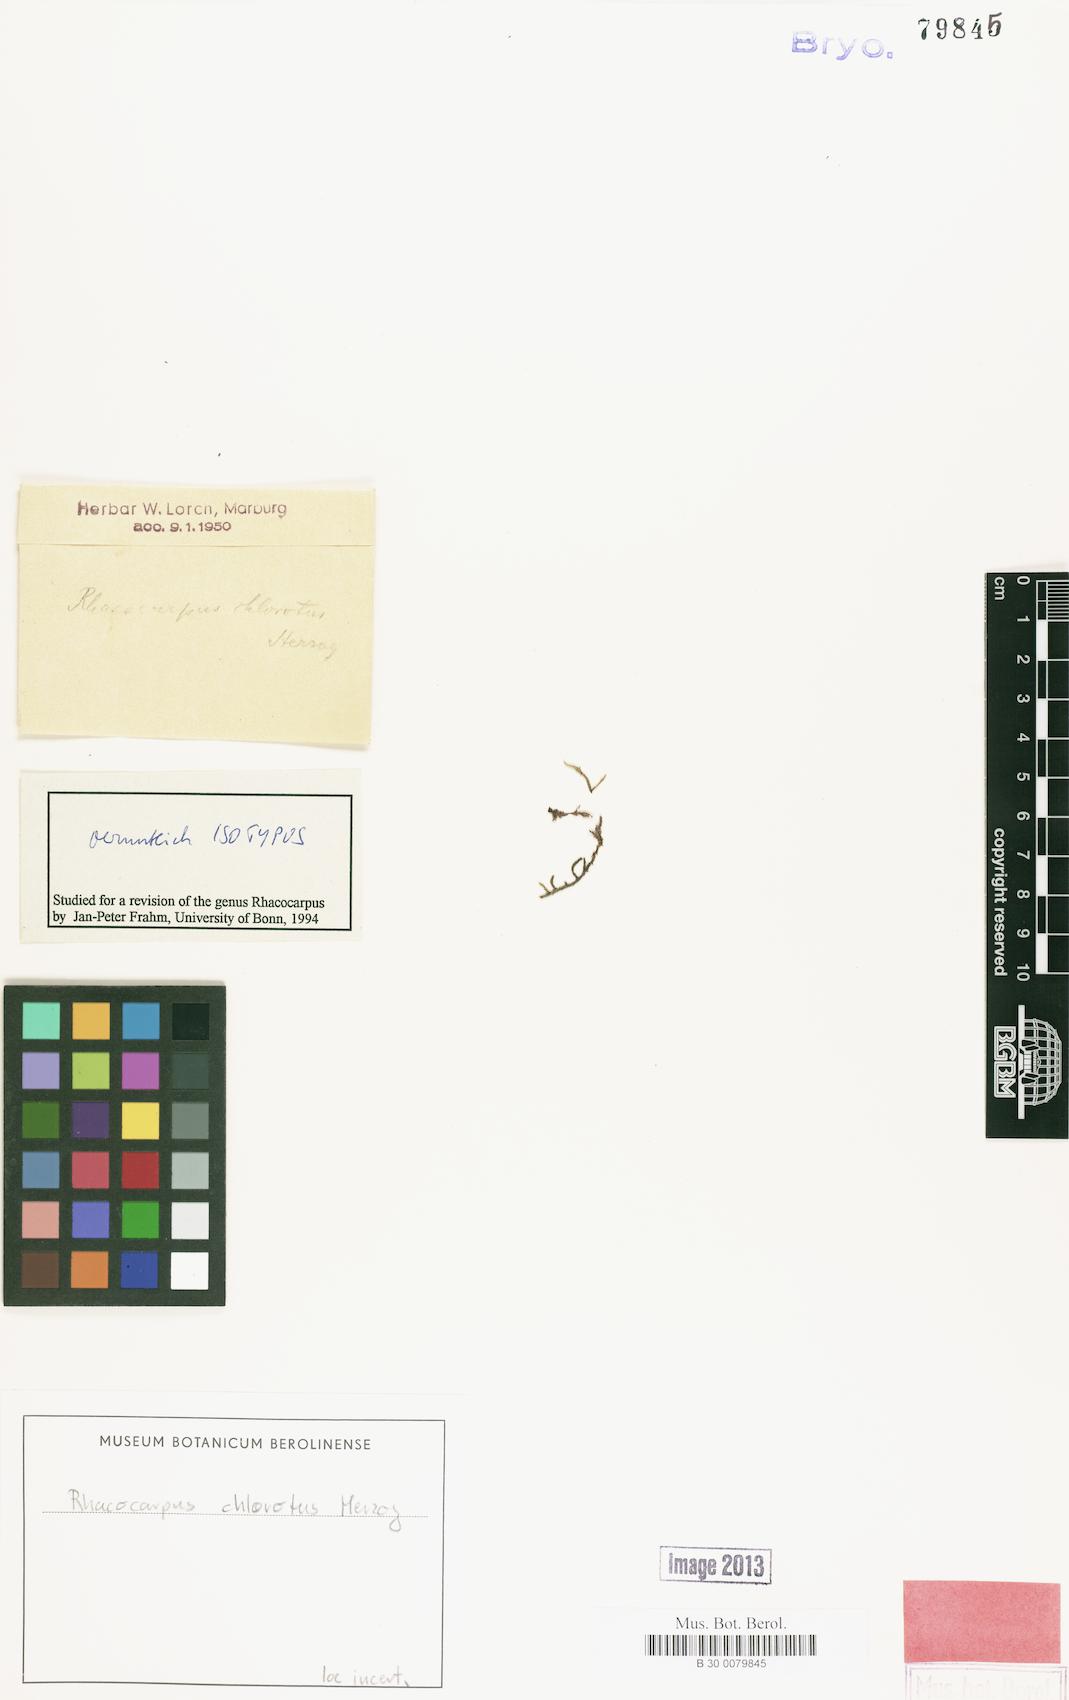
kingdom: Plantae
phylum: Bryophyta
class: Bryopsida
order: Hedwigiales
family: Hedwigiaceae
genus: Rhacocarpus
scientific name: Rhacocarpus chlorotus
